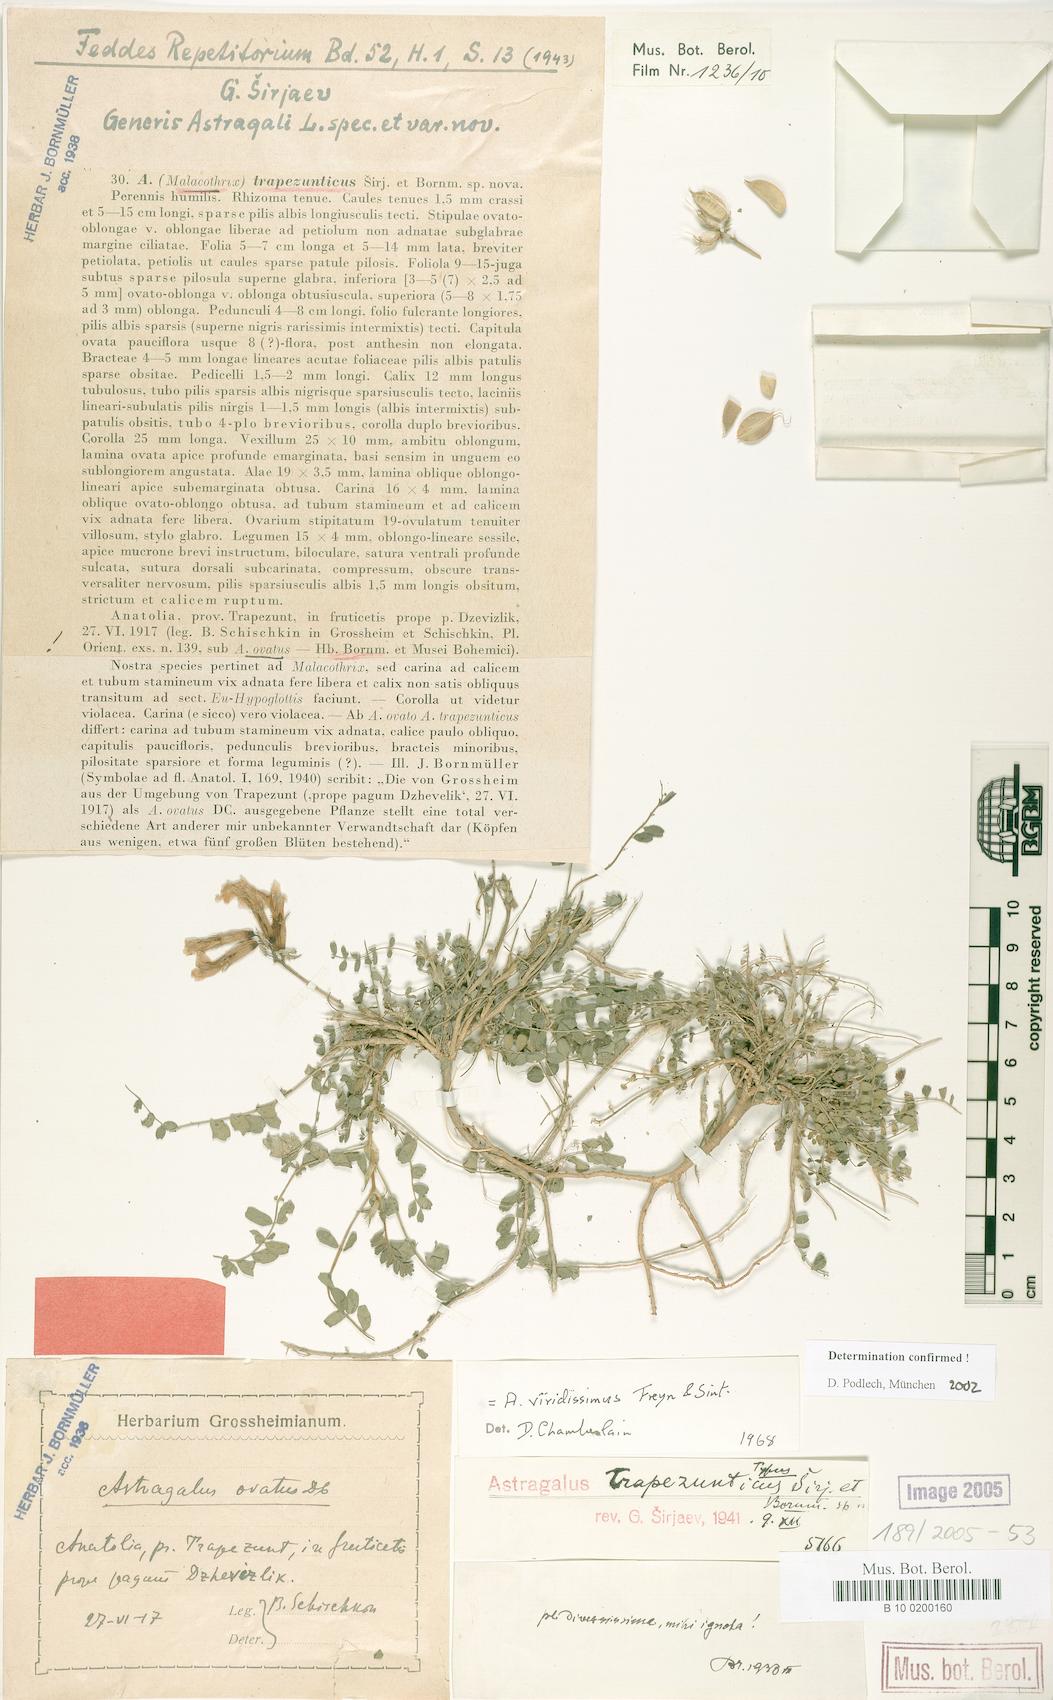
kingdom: Plantae
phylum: Tracheophyta
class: Magnoliopsida
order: Fabales
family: Fabaceae
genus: Astragalus
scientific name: Astragalus viridissimus
